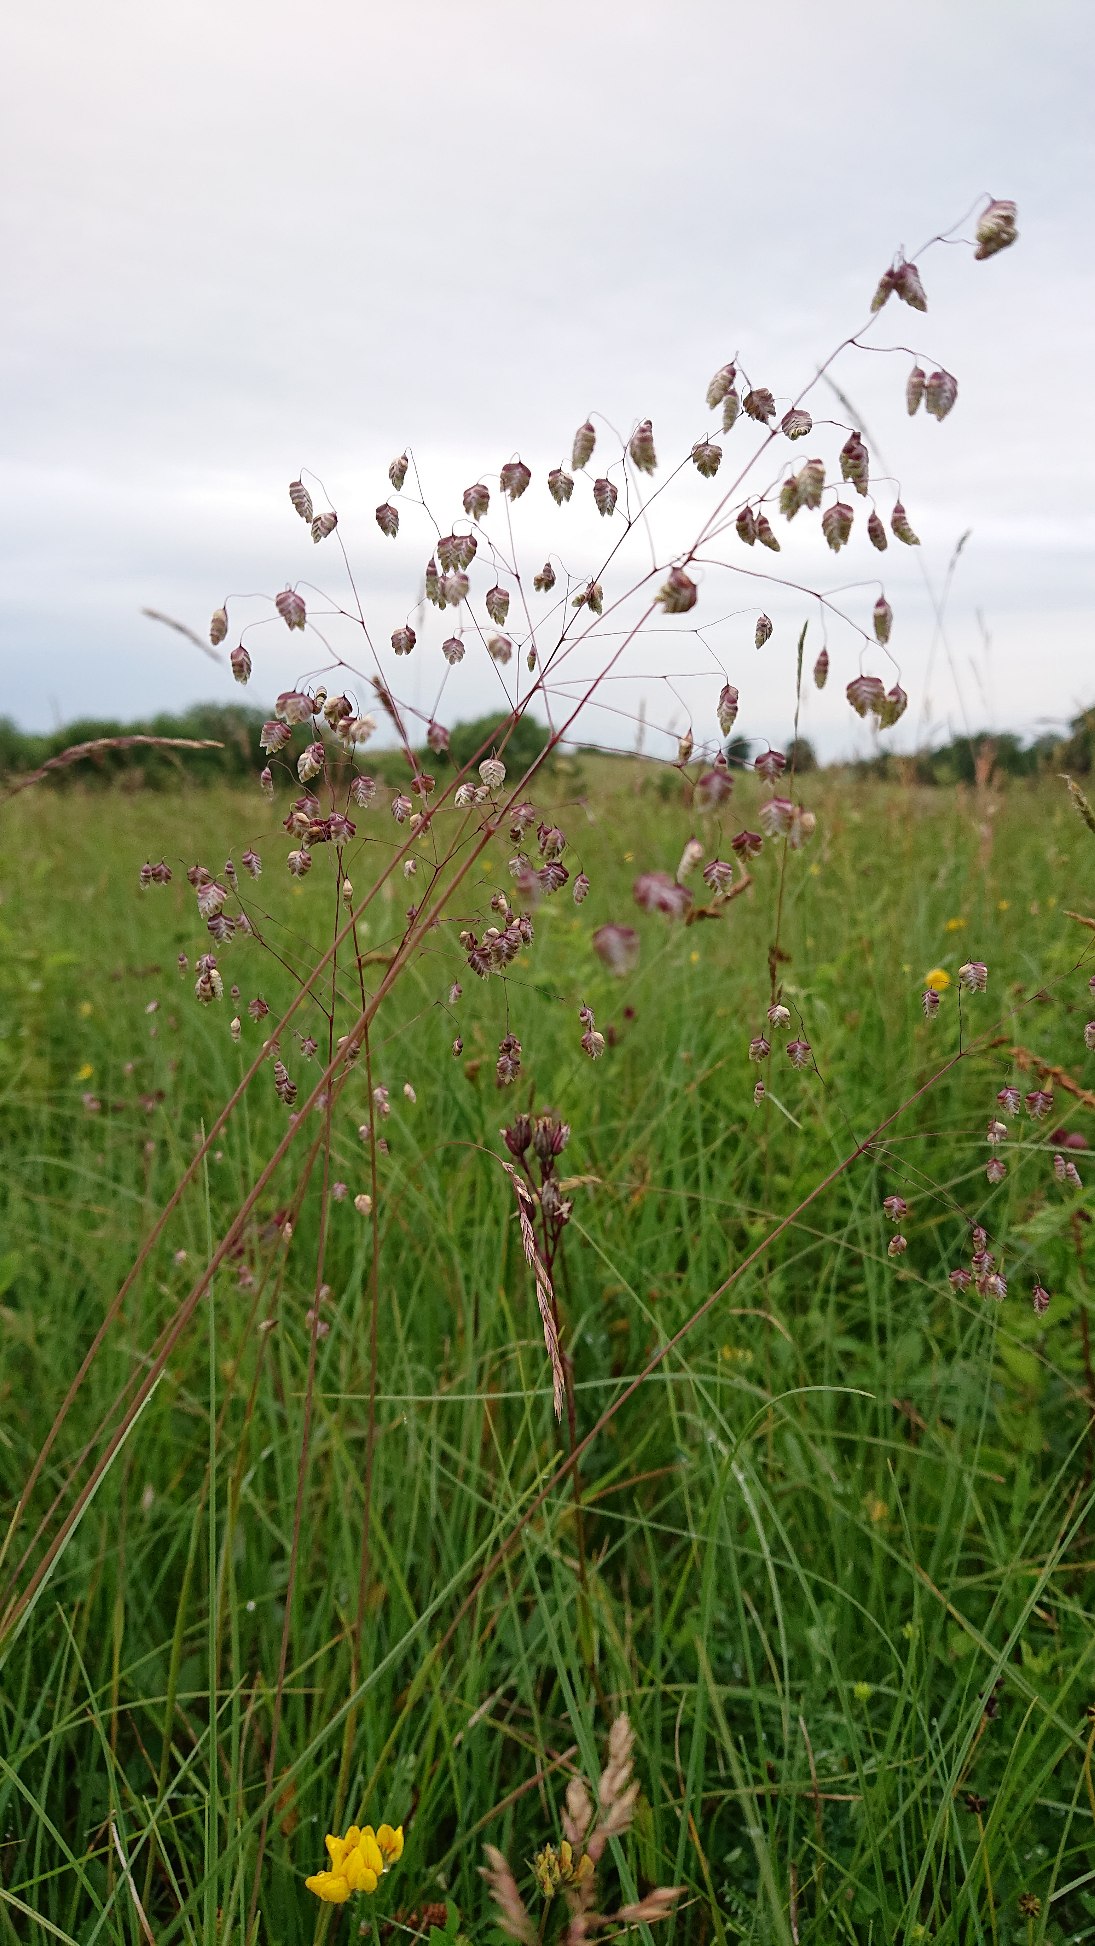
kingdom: Plantae
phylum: Tracheophyta
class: Liliopsida
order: Poales
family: Poaceae
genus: Briza
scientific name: Briza media
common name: Hjertegræs
